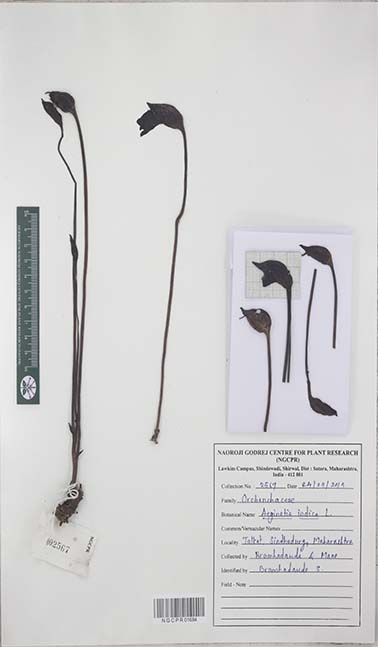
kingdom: Plantae
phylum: Tracheophyta
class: Magnoliopsida
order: Lamiales
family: Orobanchaceae
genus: Aeginetia
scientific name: Aeginetia indica
